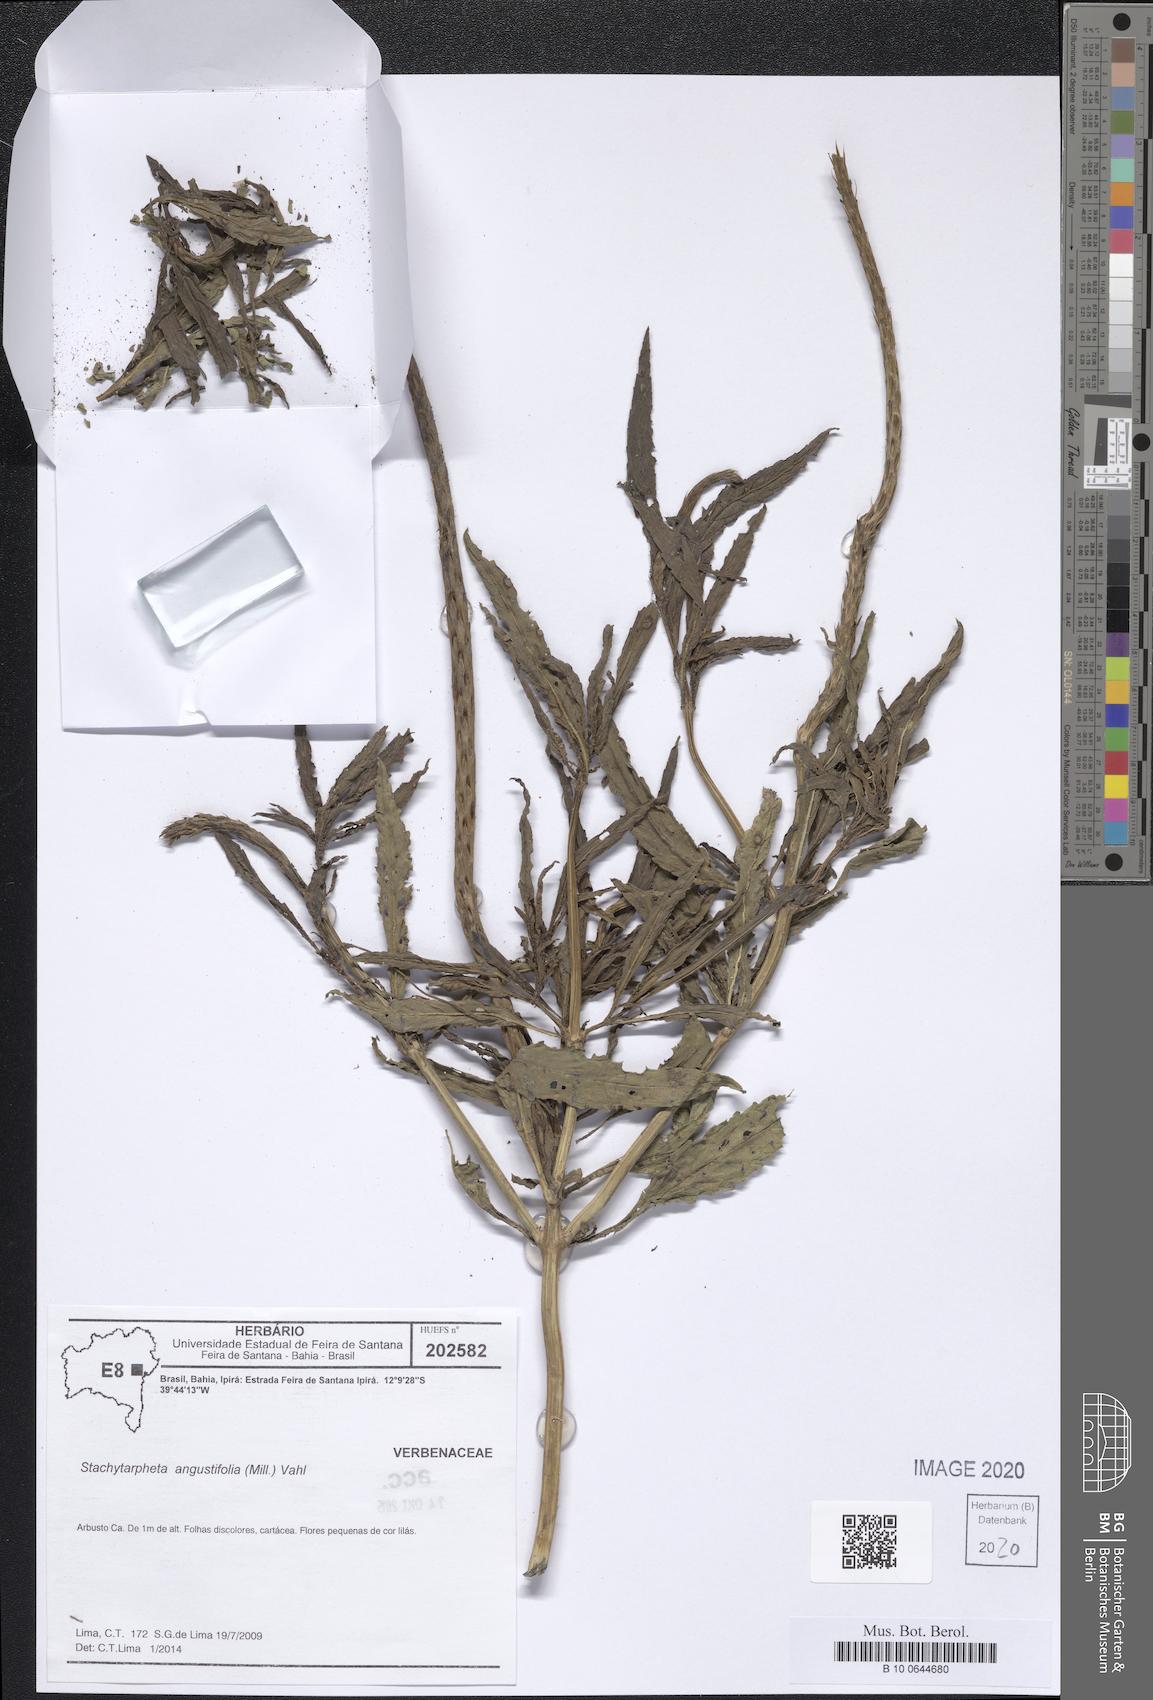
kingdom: Plantae
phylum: Tracheophyta
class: Magnoliopsida
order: Lamiales
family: Verbenaceae
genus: Stachytarpheta
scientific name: Stachytarpheta indica
